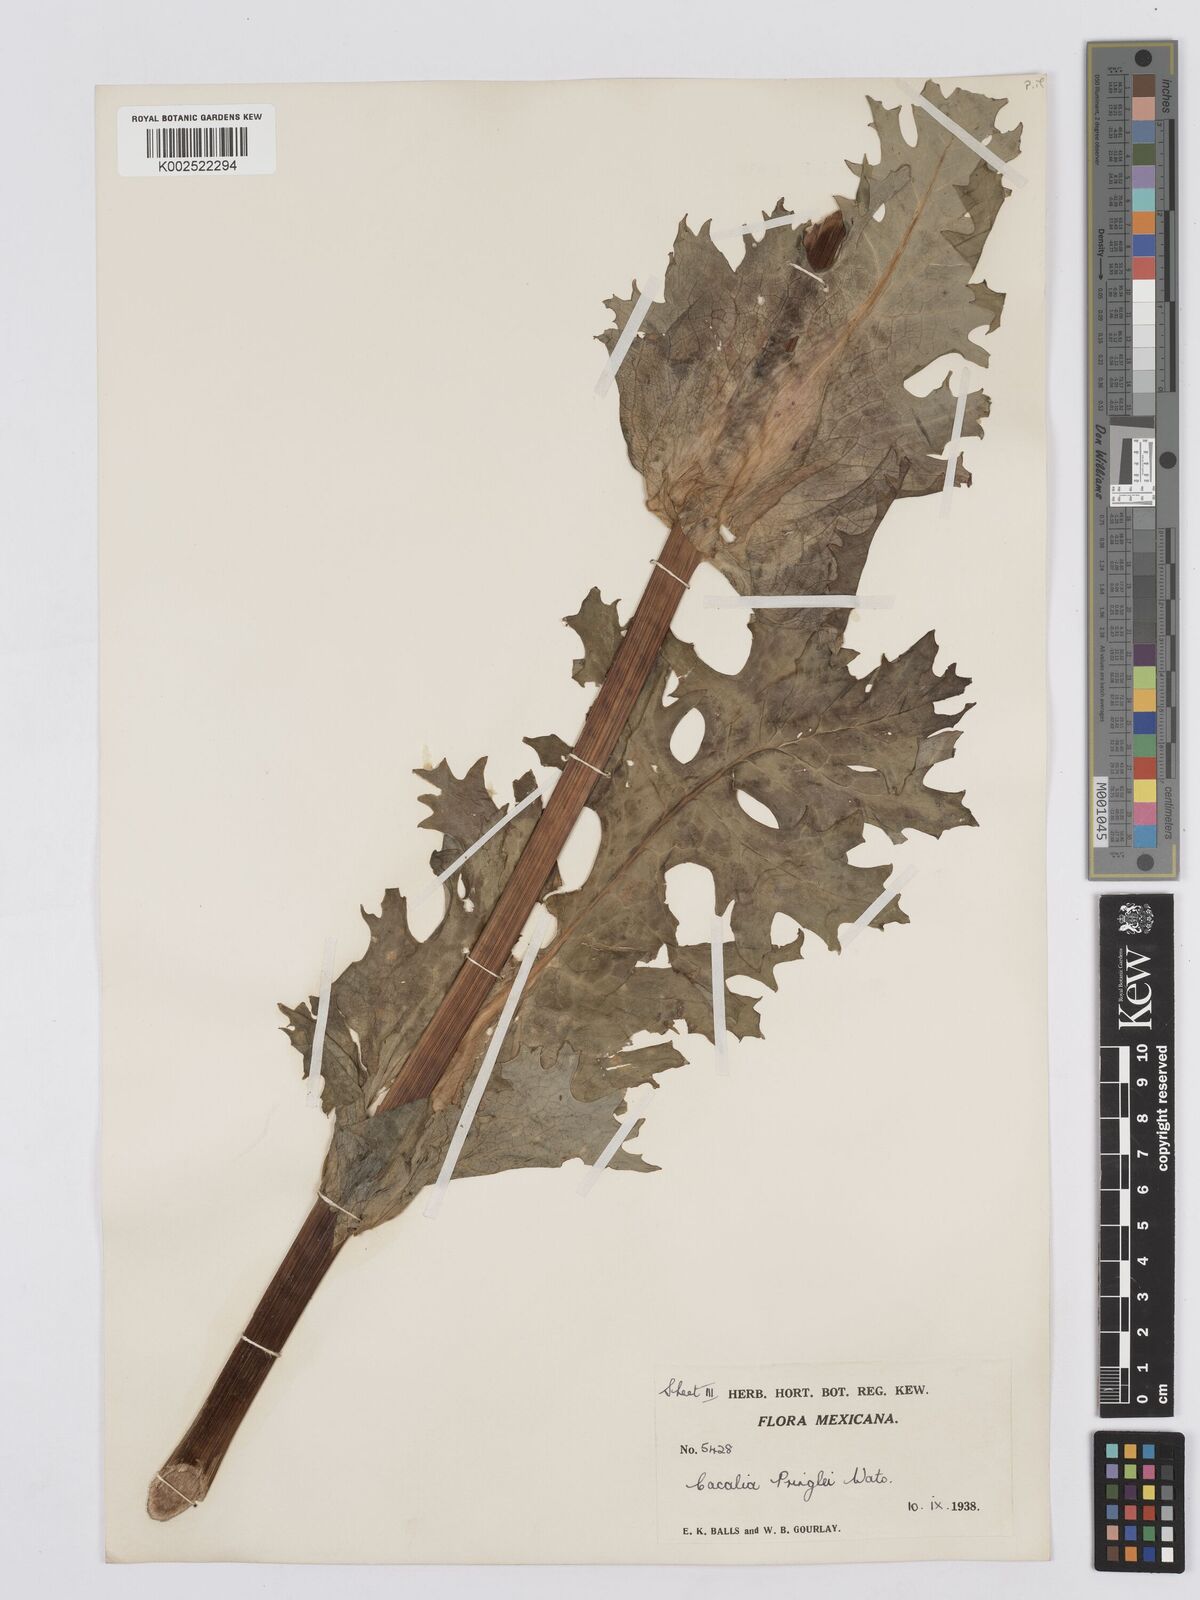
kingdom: Plantae
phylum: Tracheophyta
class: Magnoliopsida
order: Asterales
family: Asteraceae
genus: Psacalium
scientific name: Psacalium pringlei
